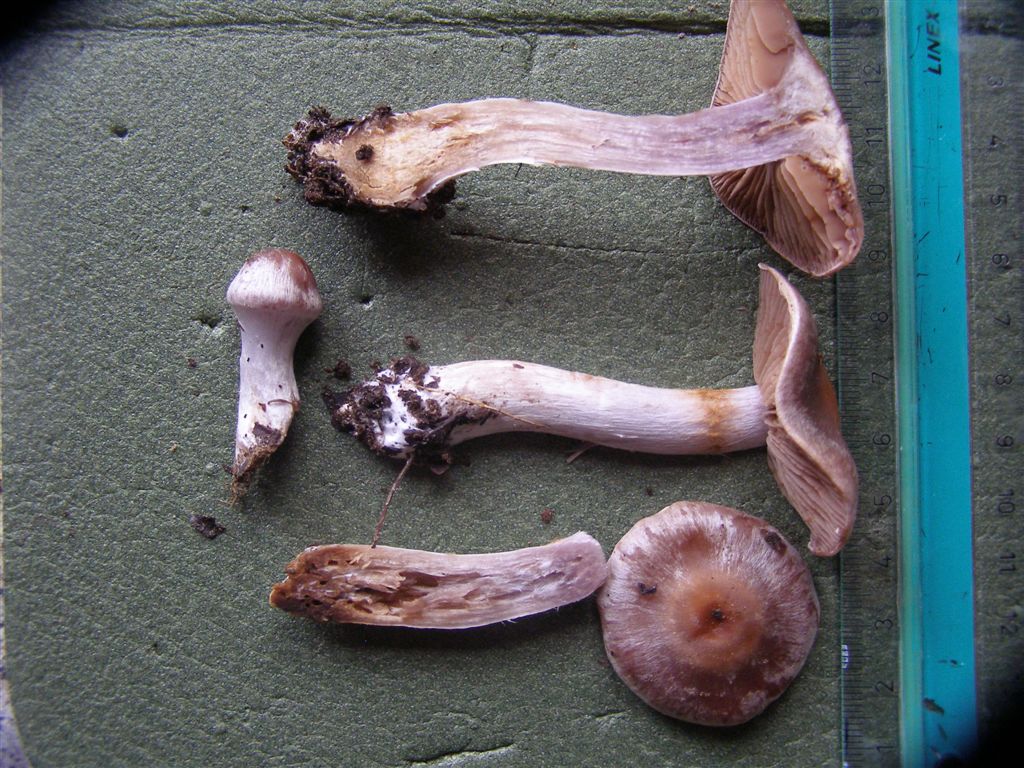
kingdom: Fungi
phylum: Basidiomycota
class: Agaricomycetes
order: Agaricales
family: Cortinariaceae
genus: Cortinarius
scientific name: Cortinarius saturninus
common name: brunviolet slørhat
